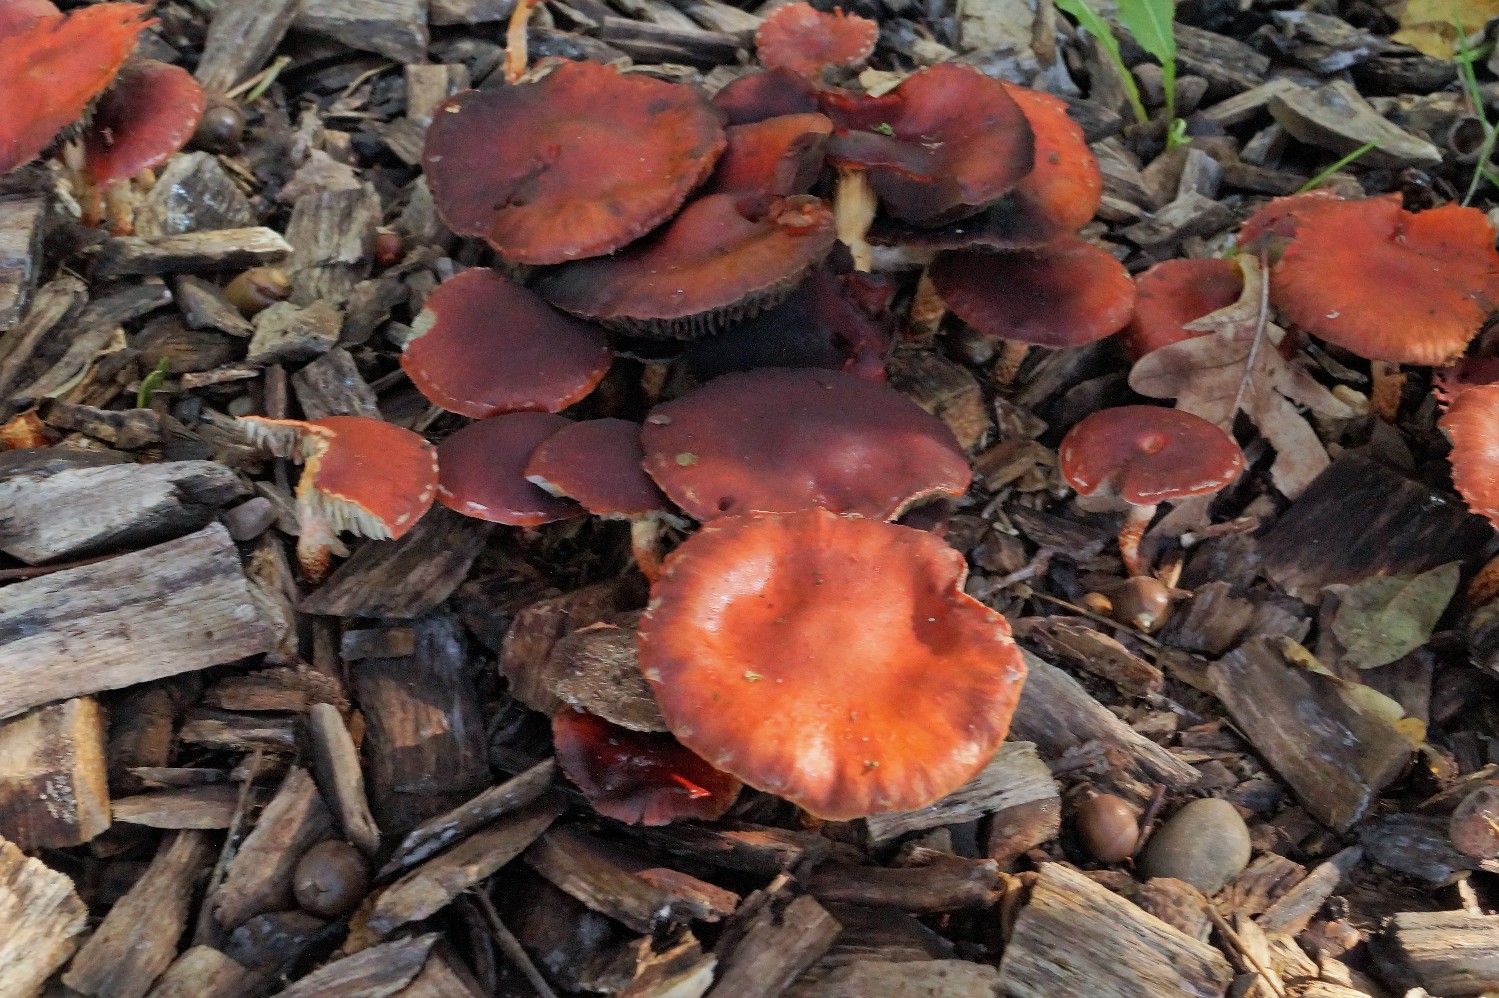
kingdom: Fungi
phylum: Basidiomycota
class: Agaricomycetes
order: Agaricales
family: Strophariaceae
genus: Leratiomyces
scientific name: Leratiomyces ceres
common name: orange bredblad
